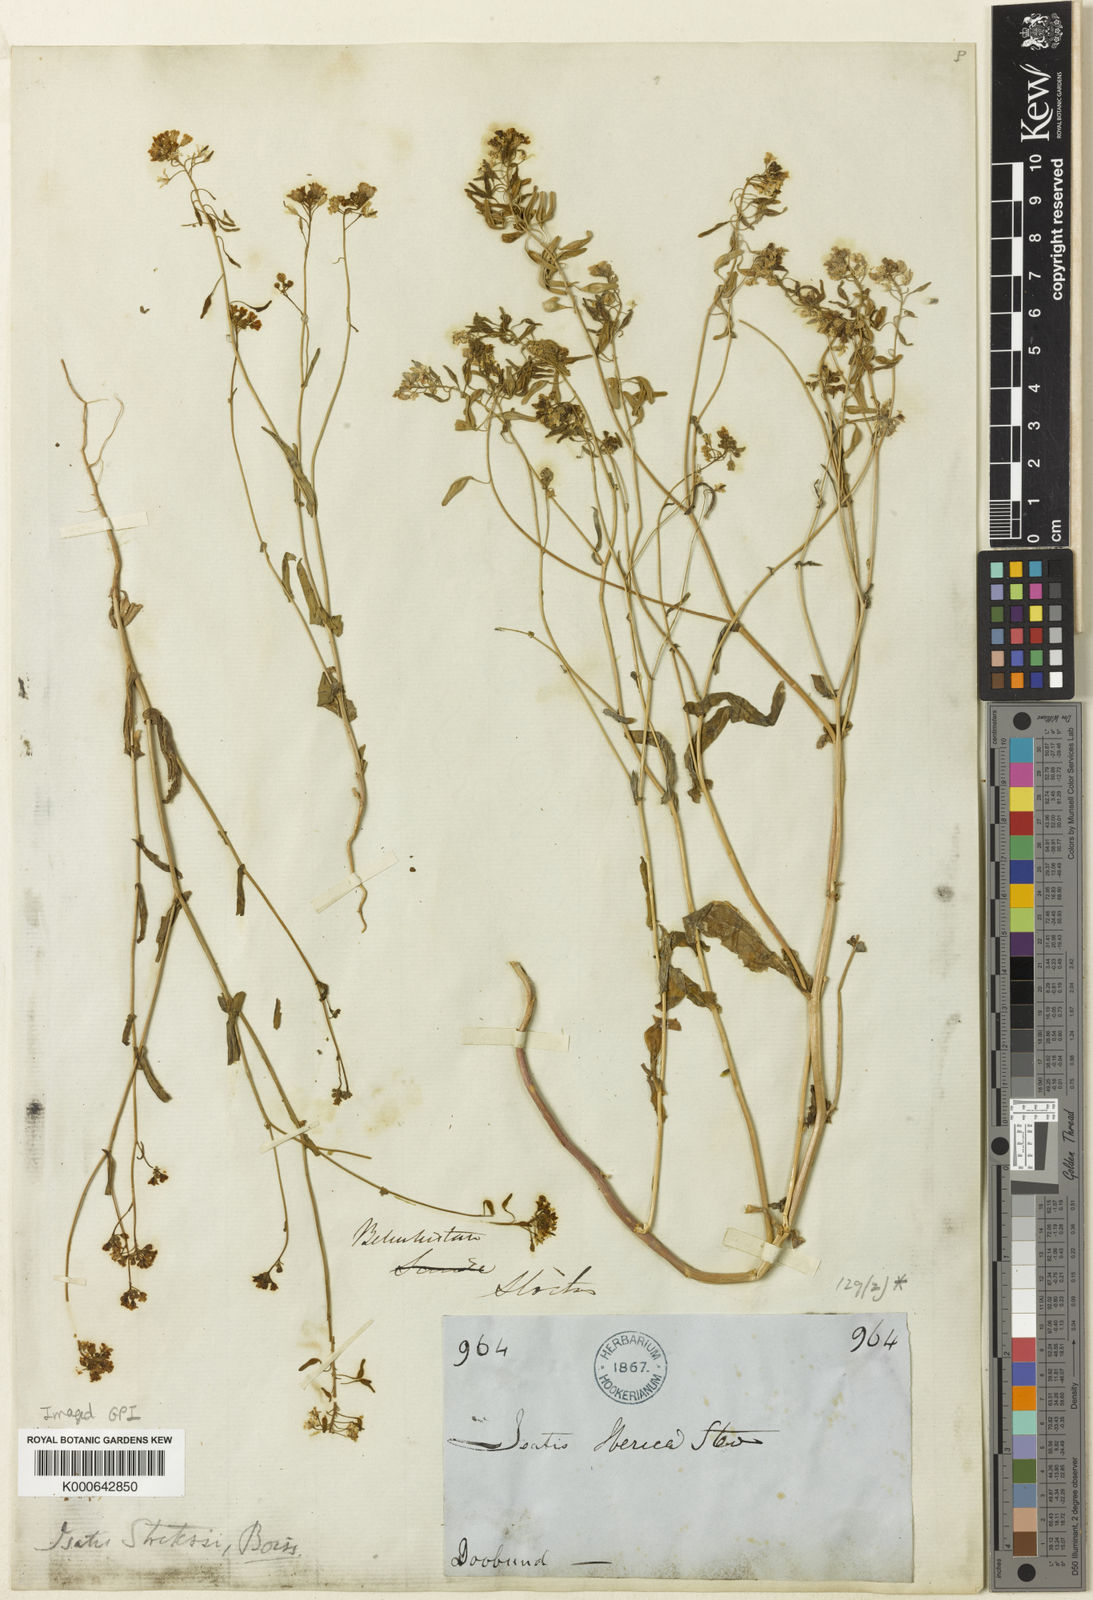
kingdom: Plantae
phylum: Tracheophyta
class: Magnoliopsida
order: Brassicales
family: Brassicaceae
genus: Isatis
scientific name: Isatis stocksii
